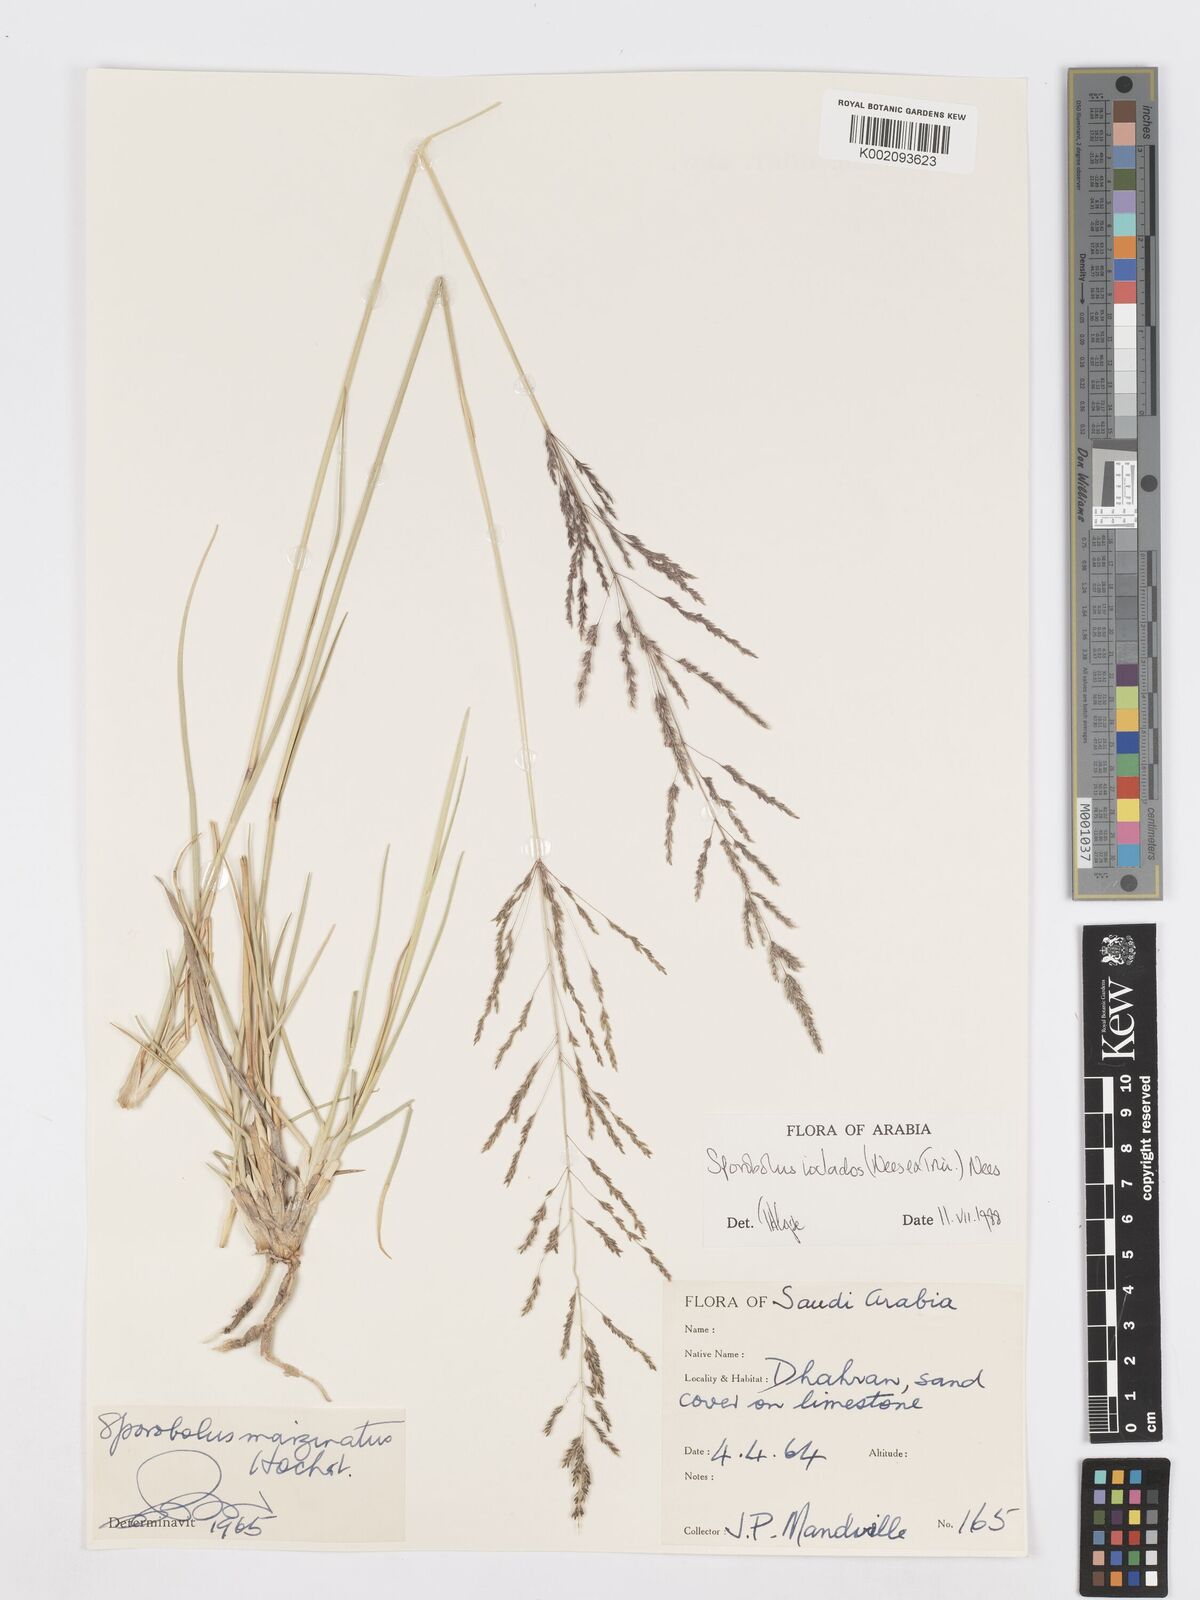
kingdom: Plantae
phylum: Tracheophyta
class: Liliopsida
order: Poales
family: Poaceae
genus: Sporobolus
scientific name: Sporobolus ioclados
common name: Pan dropseed
